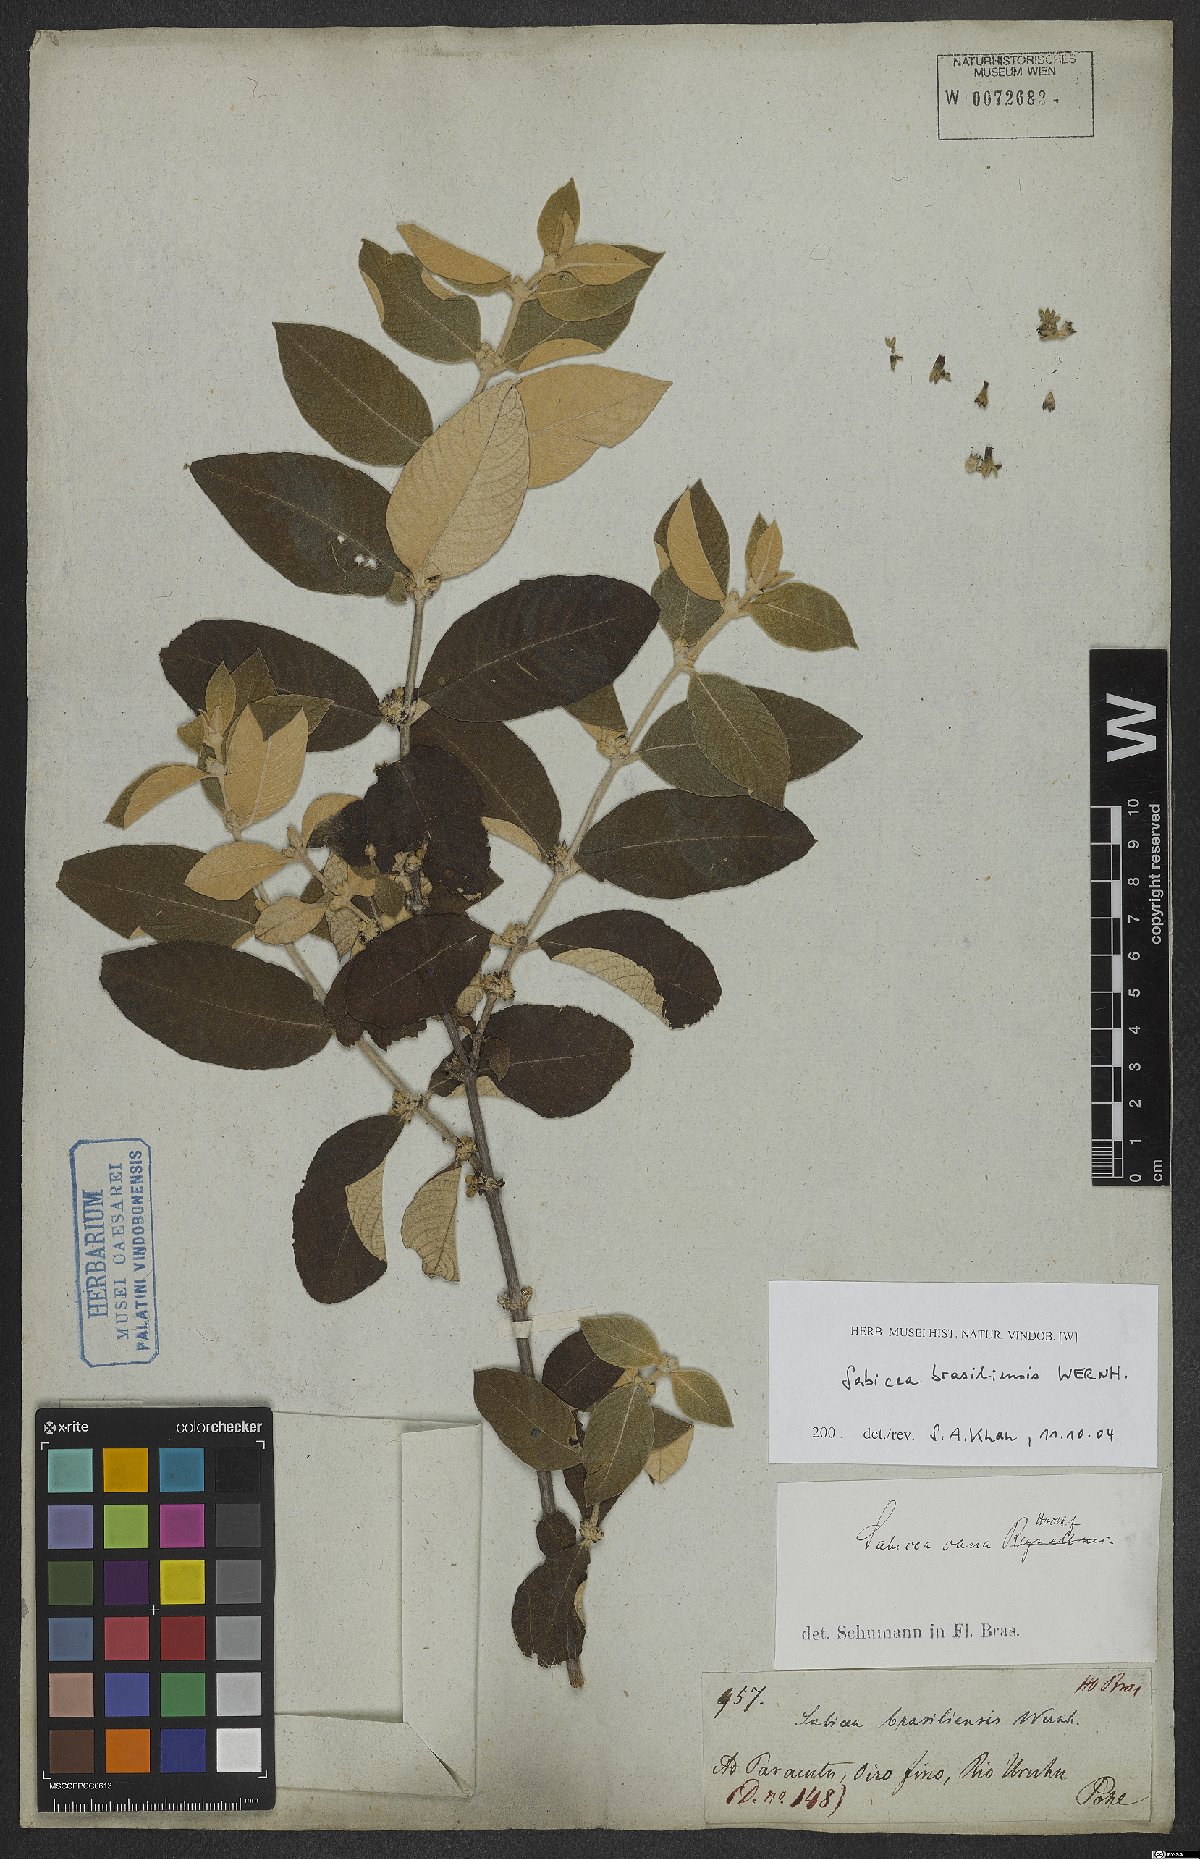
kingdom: Plantae
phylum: Tracheophyta
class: Magnoliopsida
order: Gentianales
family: Rubiaceae
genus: Sabicea
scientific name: Sabicea brasiliensis
